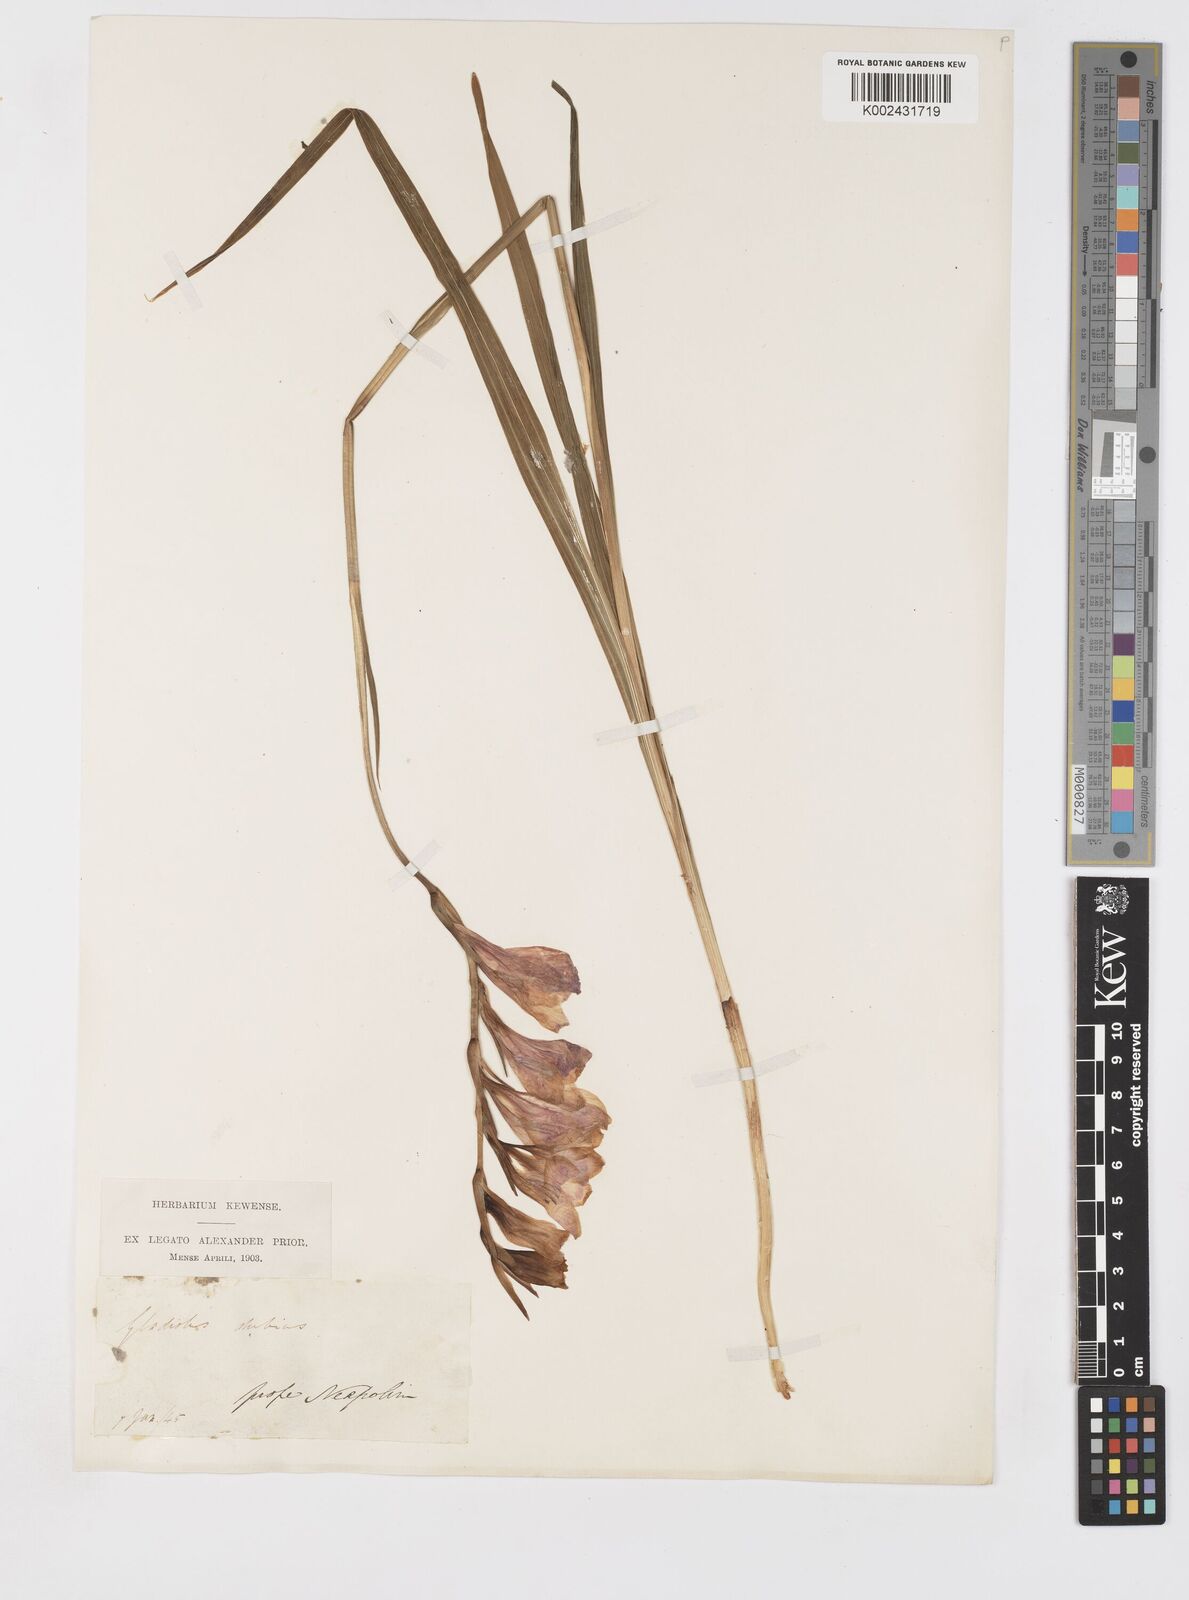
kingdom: Plantae
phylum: Tracheophyta
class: Liliopsida
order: Asparagales
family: Iridaceae
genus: Gladiolus
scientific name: Gladiolus italicus
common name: Field gladiolus
